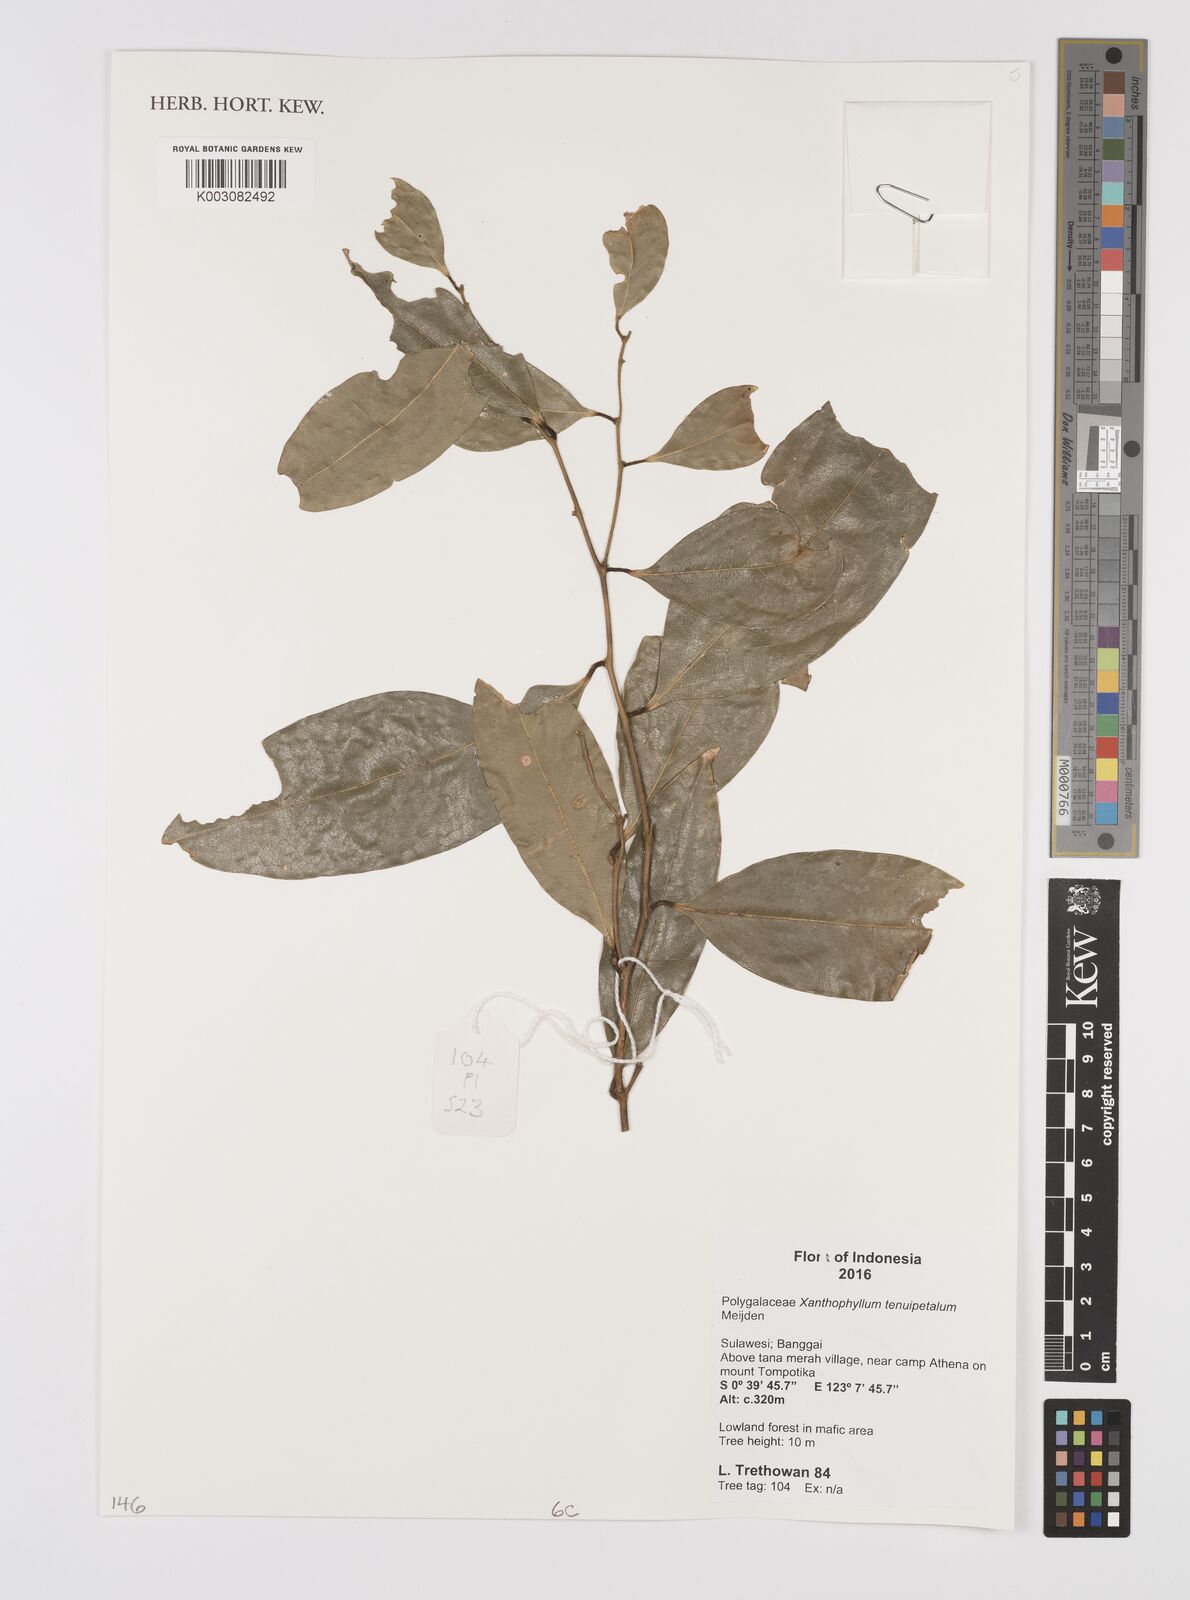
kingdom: Plantae
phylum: Tracheophyta
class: Magnoliopsida
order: Fabales
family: Polygalaceae
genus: Xanthophyllum
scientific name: Xanthophyllum tenuipetalum
